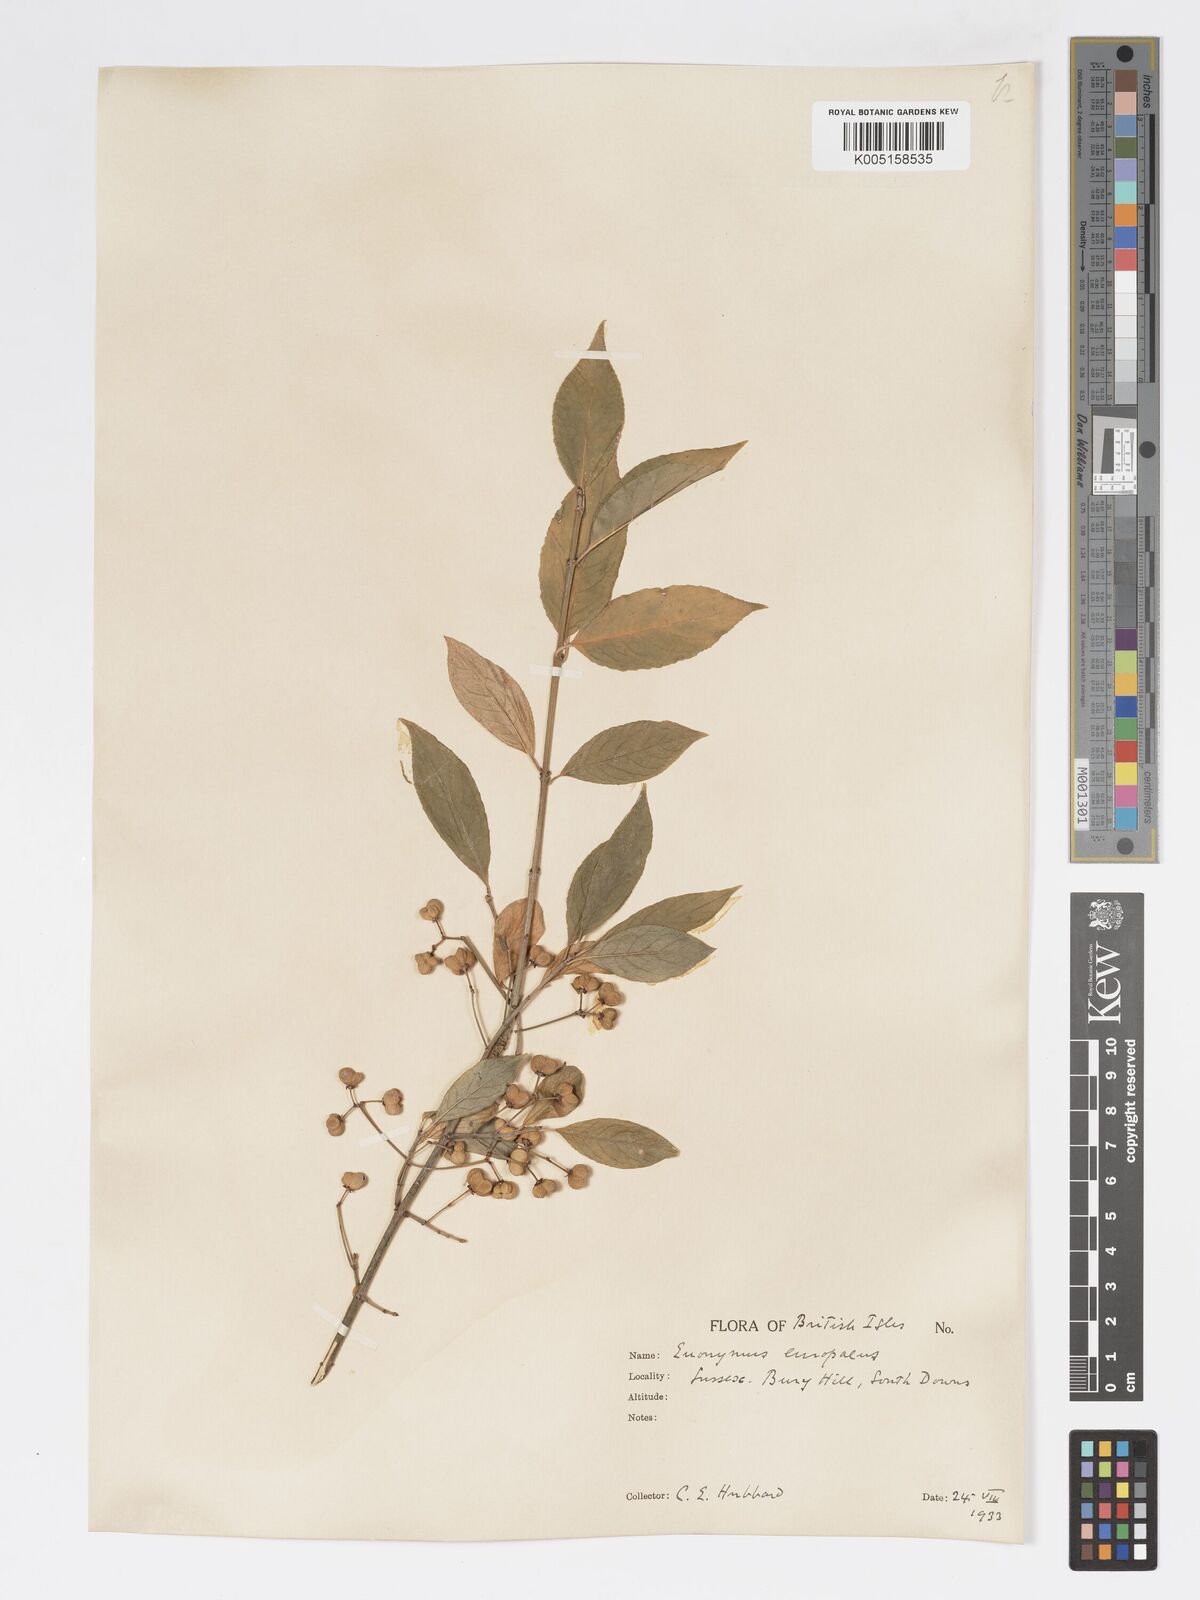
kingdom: Plantae
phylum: Tracheophyta
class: Magnoliopsida
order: Celastrales
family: Celastraceae
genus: Euonymus
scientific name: Euonymus europaeus
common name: Spindle
